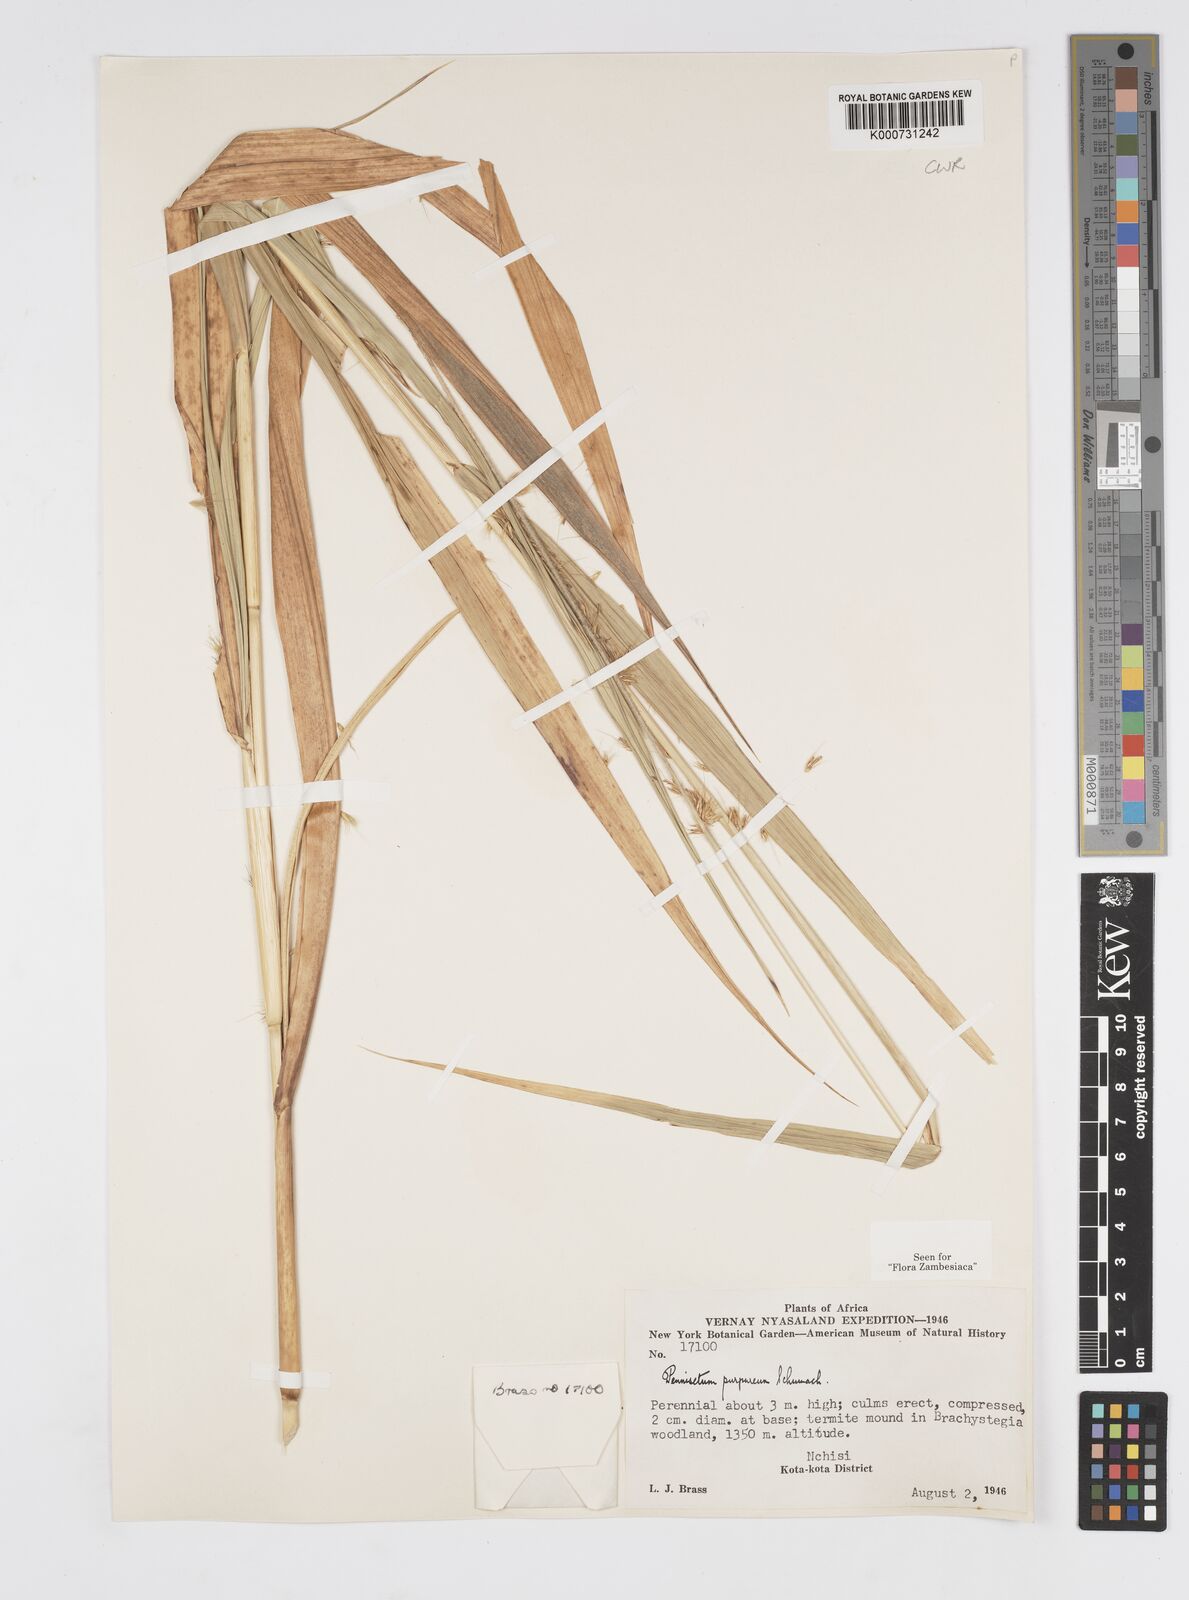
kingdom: Plantae
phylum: Tracheophyta
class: Liliopsida
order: Poales
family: Poaceae
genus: Cenchrus
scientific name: Cenchrus purpureus
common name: Elephant grass
